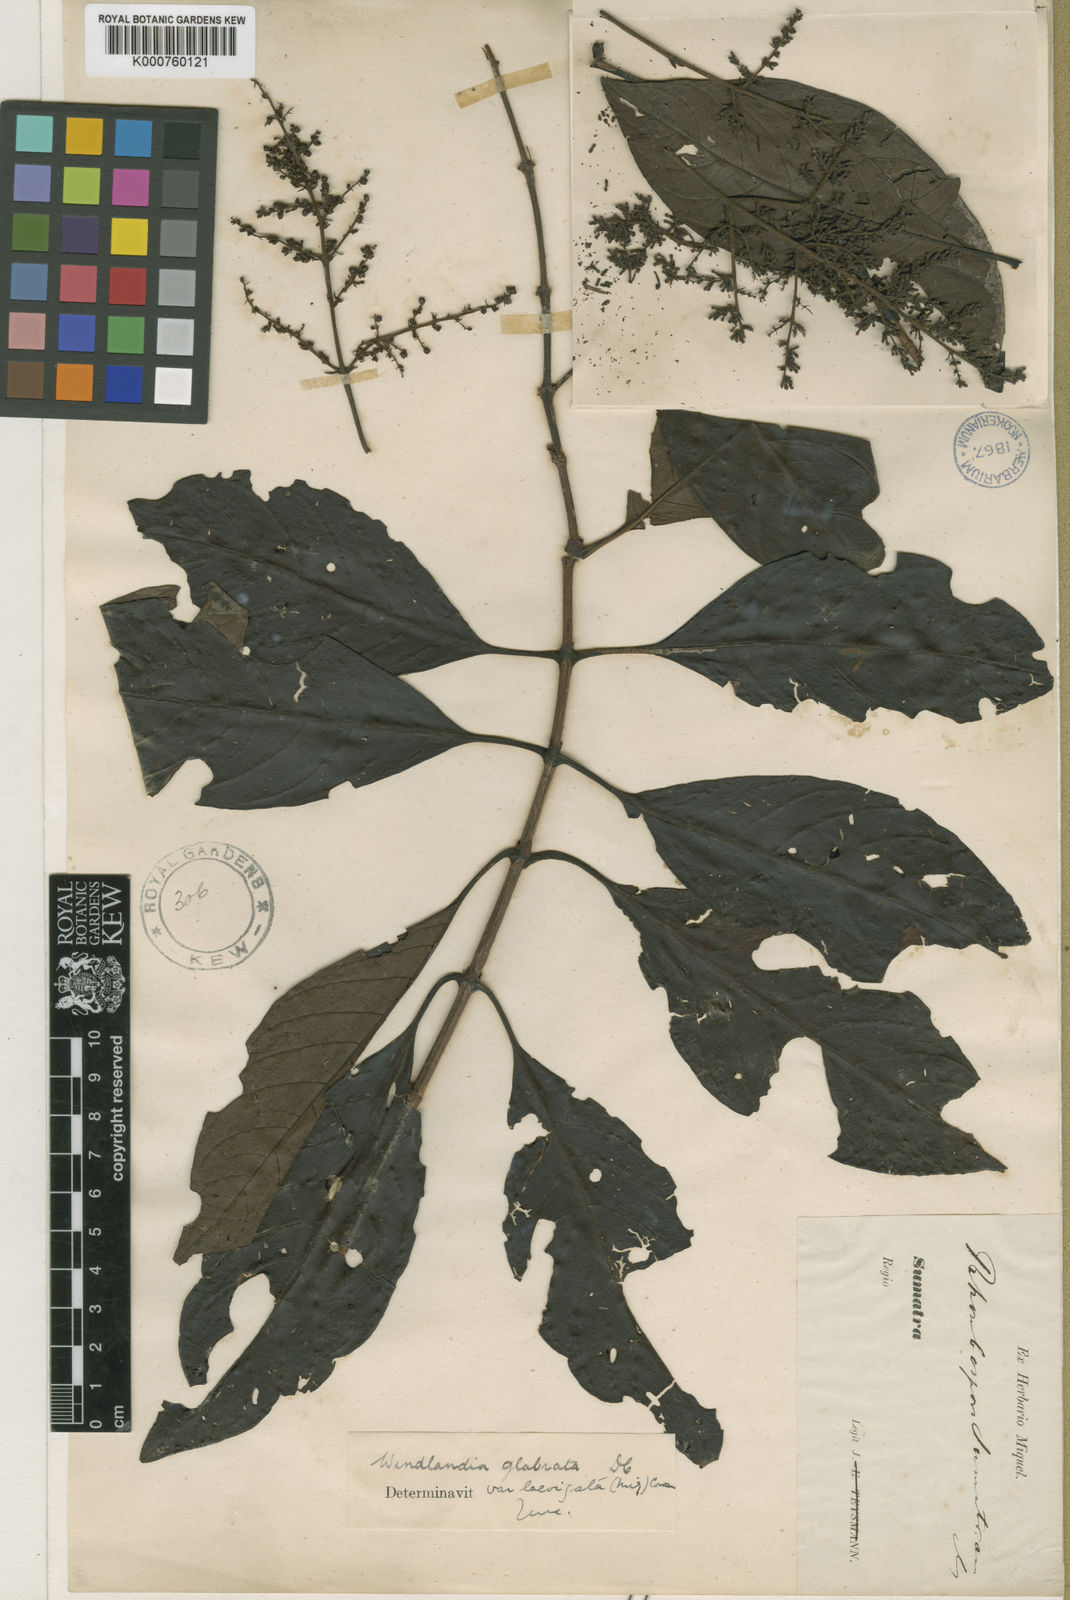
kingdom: Plantae
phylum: Tracheophyta
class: Magnoliopsida
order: Gentianales
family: Rubiaceae
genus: Wendlandia
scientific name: Wendlandia glabrata
